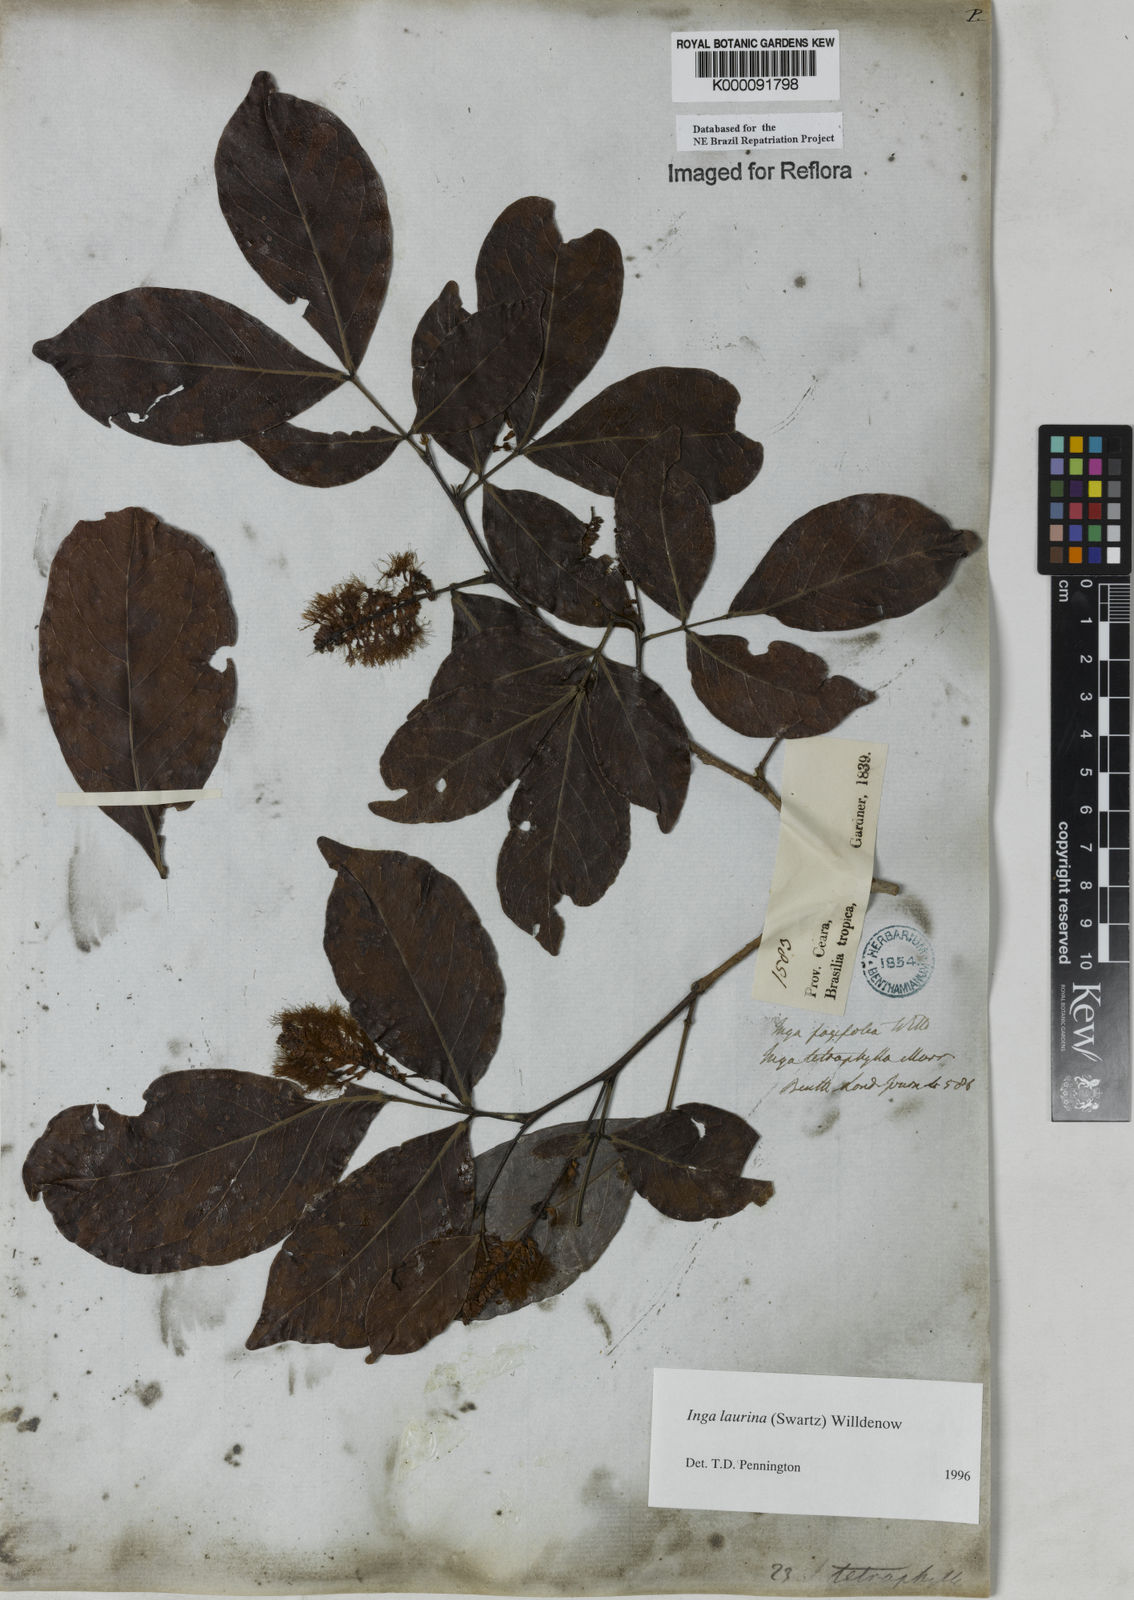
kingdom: Plantae
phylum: Tracheophyta
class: Magnoliopsida
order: Fabales
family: Fabaceae
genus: Inga
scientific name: Inga laurina
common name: Red wood
